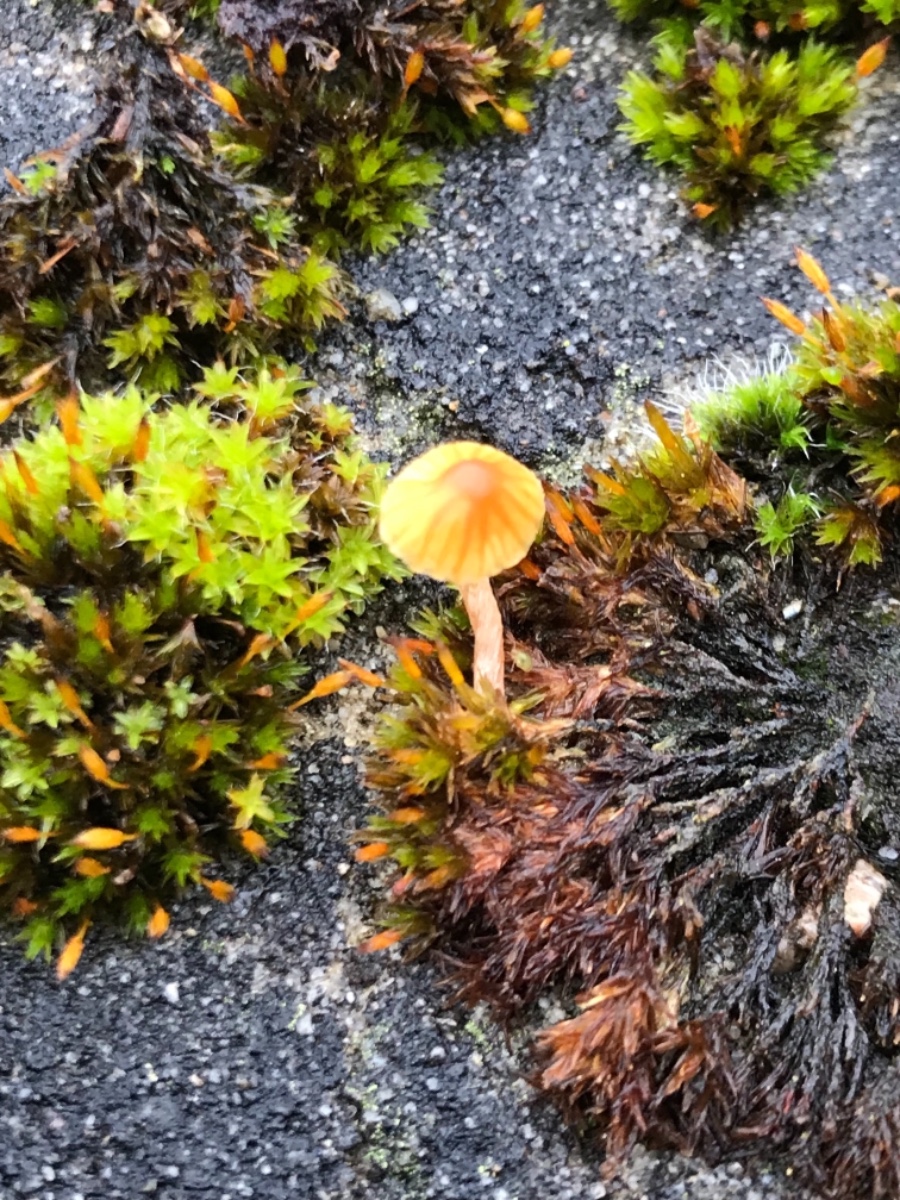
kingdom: Fungi
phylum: Basidiomycota
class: Agaricomycetes
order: Agaricales
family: Hymenogastraceae
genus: Galerina
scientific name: Galerina
